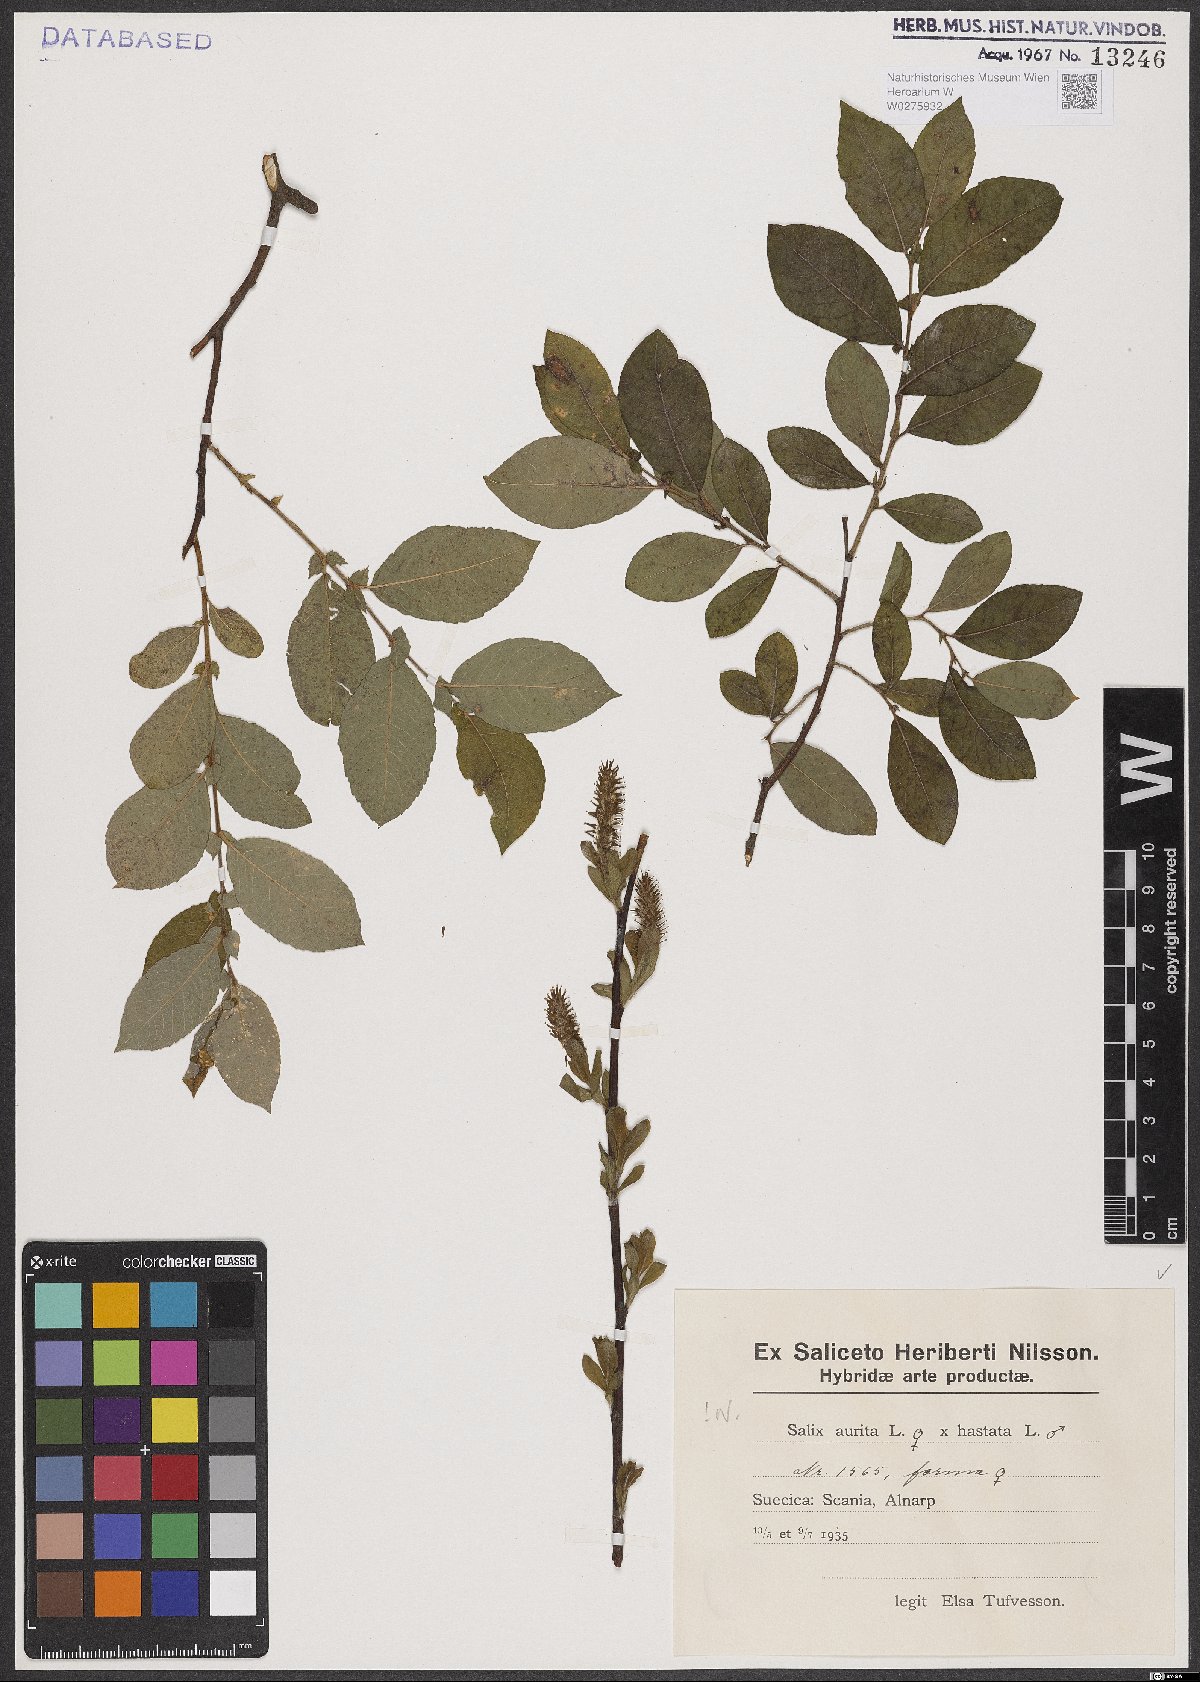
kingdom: Plantae
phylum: Tracheophyta
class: Magnoliopsida
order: Malpighiales
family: Salicaceae
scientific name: Salicaceae
